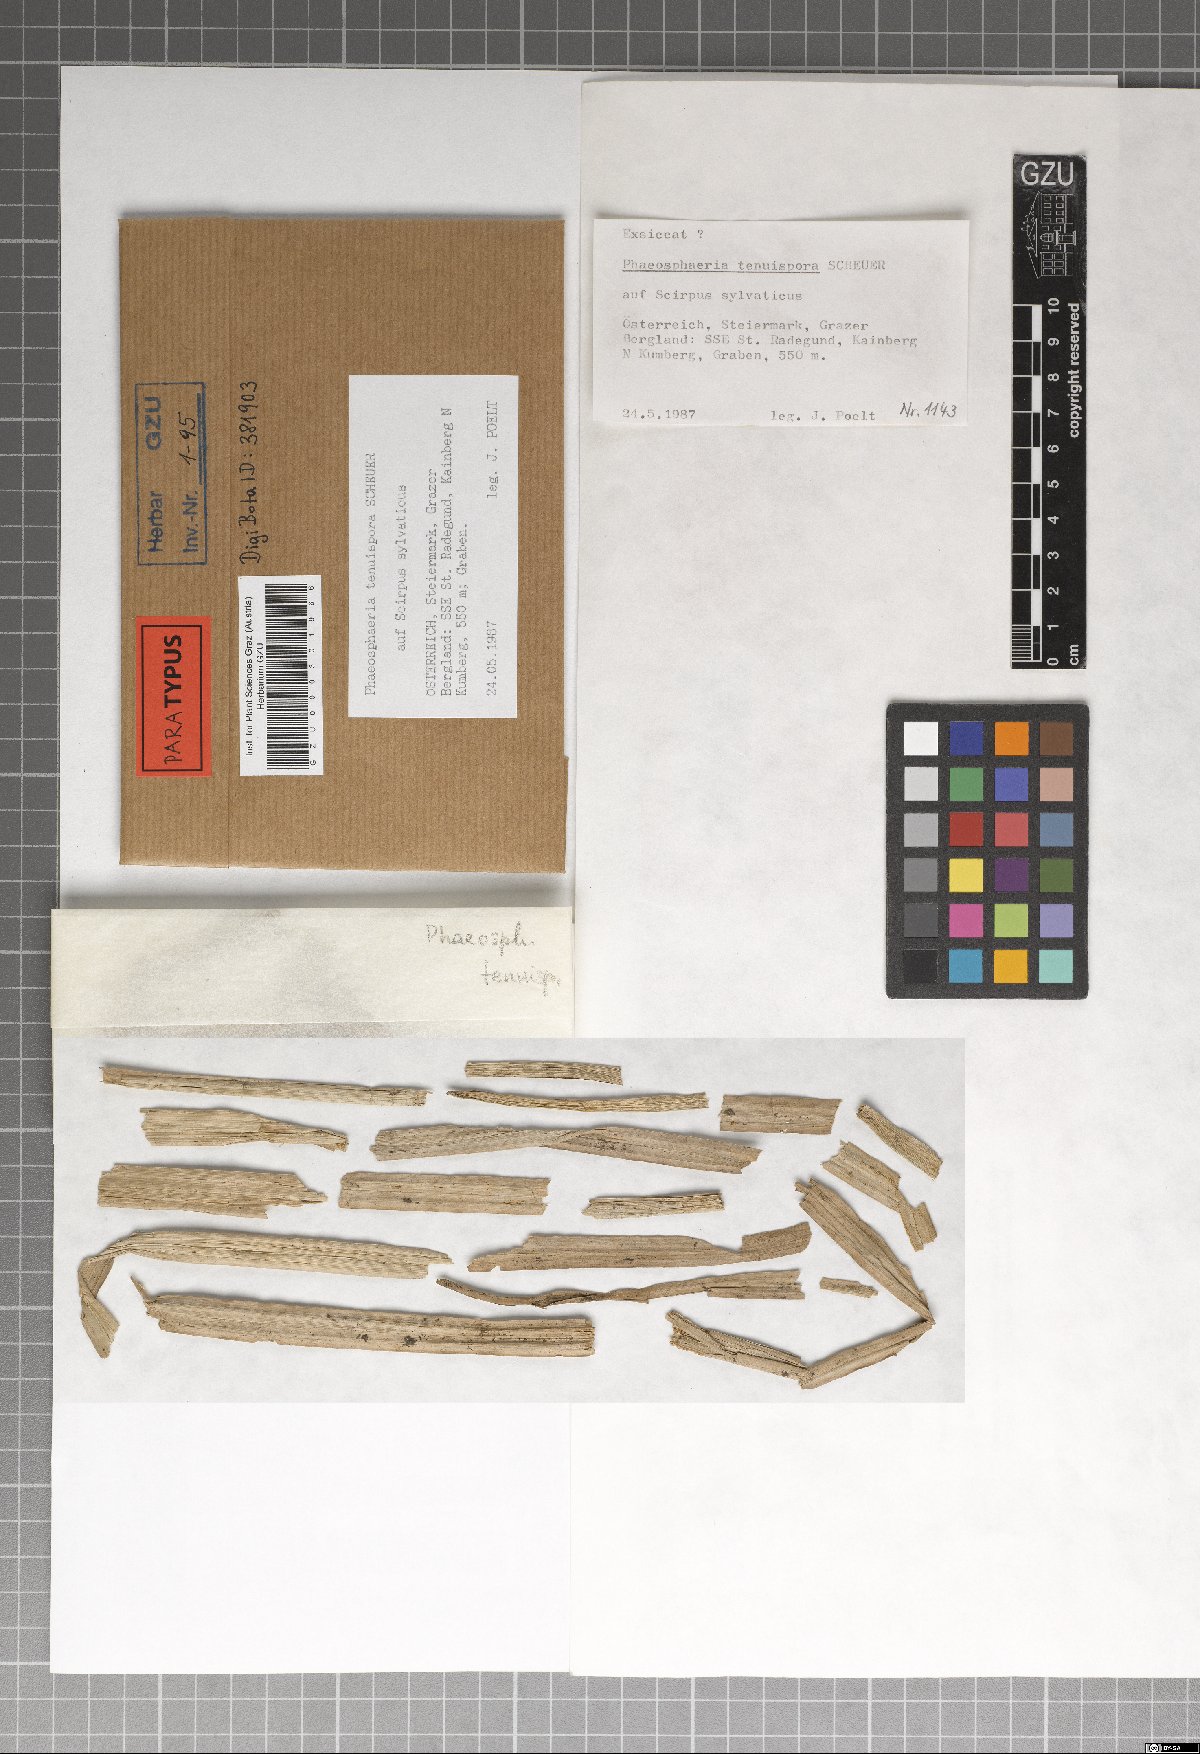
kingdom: Fungi
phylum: Ascomycota
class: Dothideomycetes
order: Pleosporales
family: Phaeosphaeriaceae
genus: Phaeosphaeria
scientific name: Phaeosphaeria tenuispora
